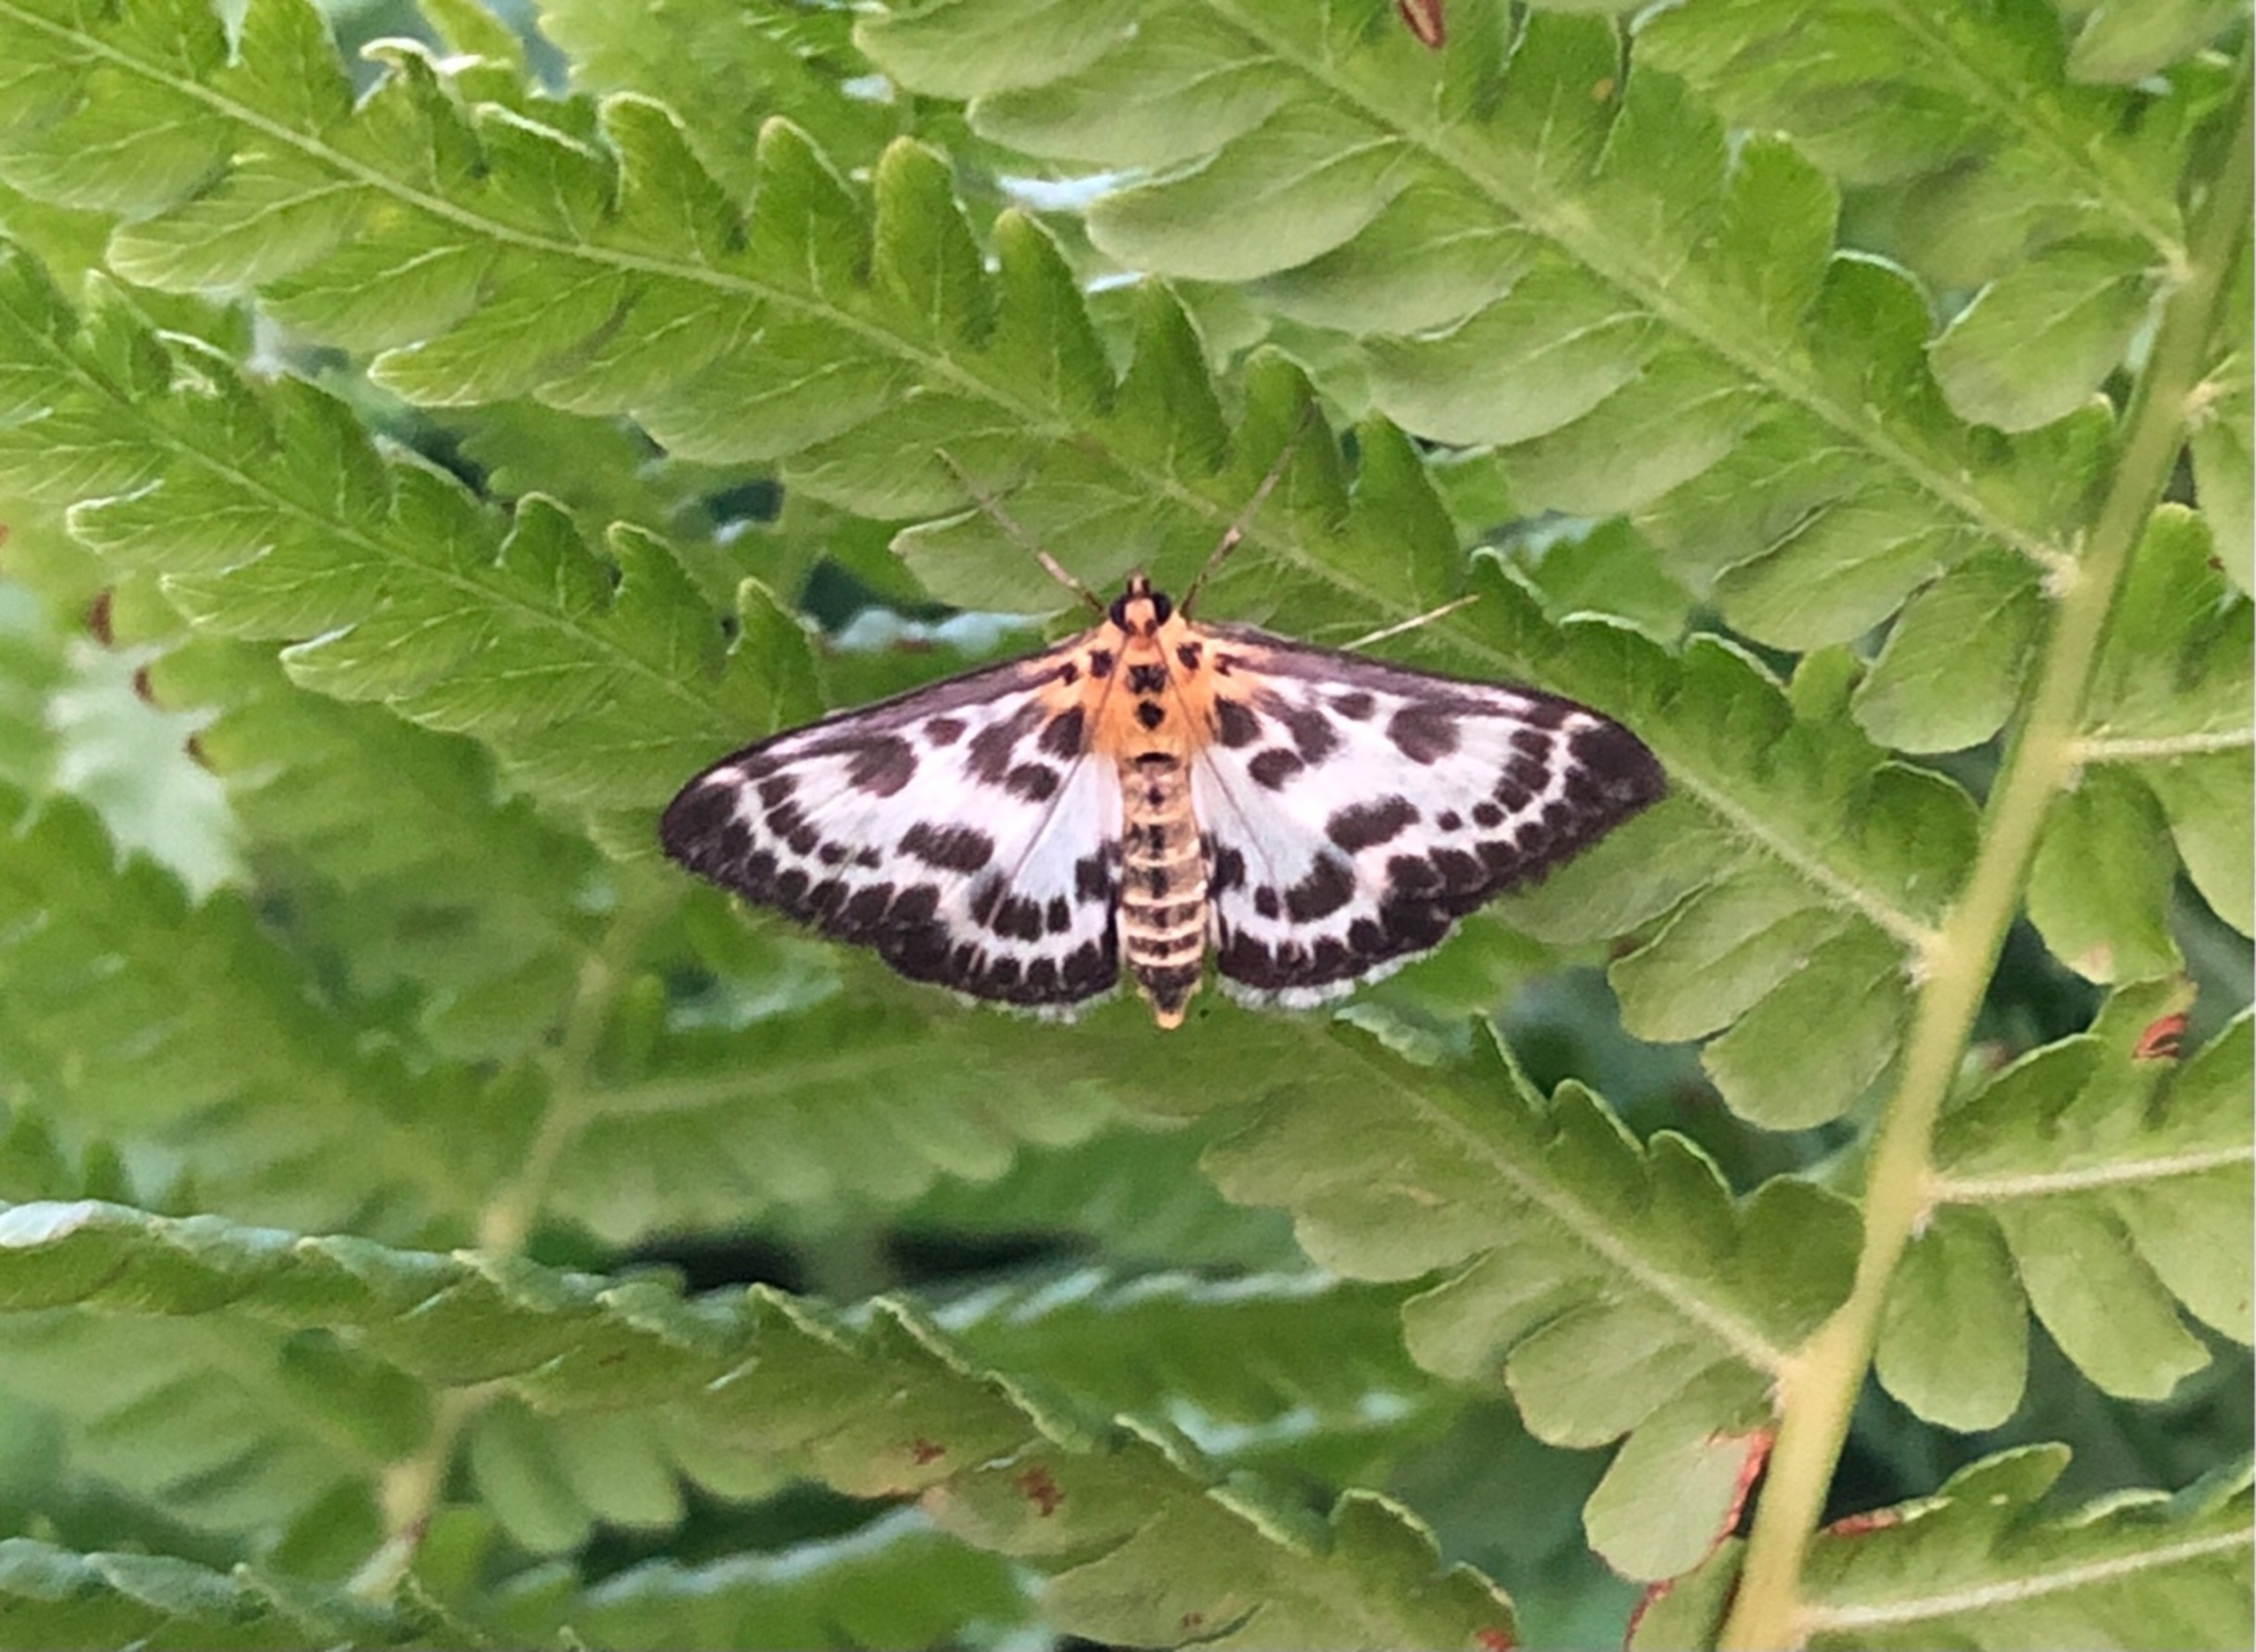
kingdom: Animalia
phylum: Arthropoda
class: Insecta
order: Lepidoptera
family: Crambidae
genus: Anania
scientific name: Anania hortulata
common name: Nældehalvmøl
